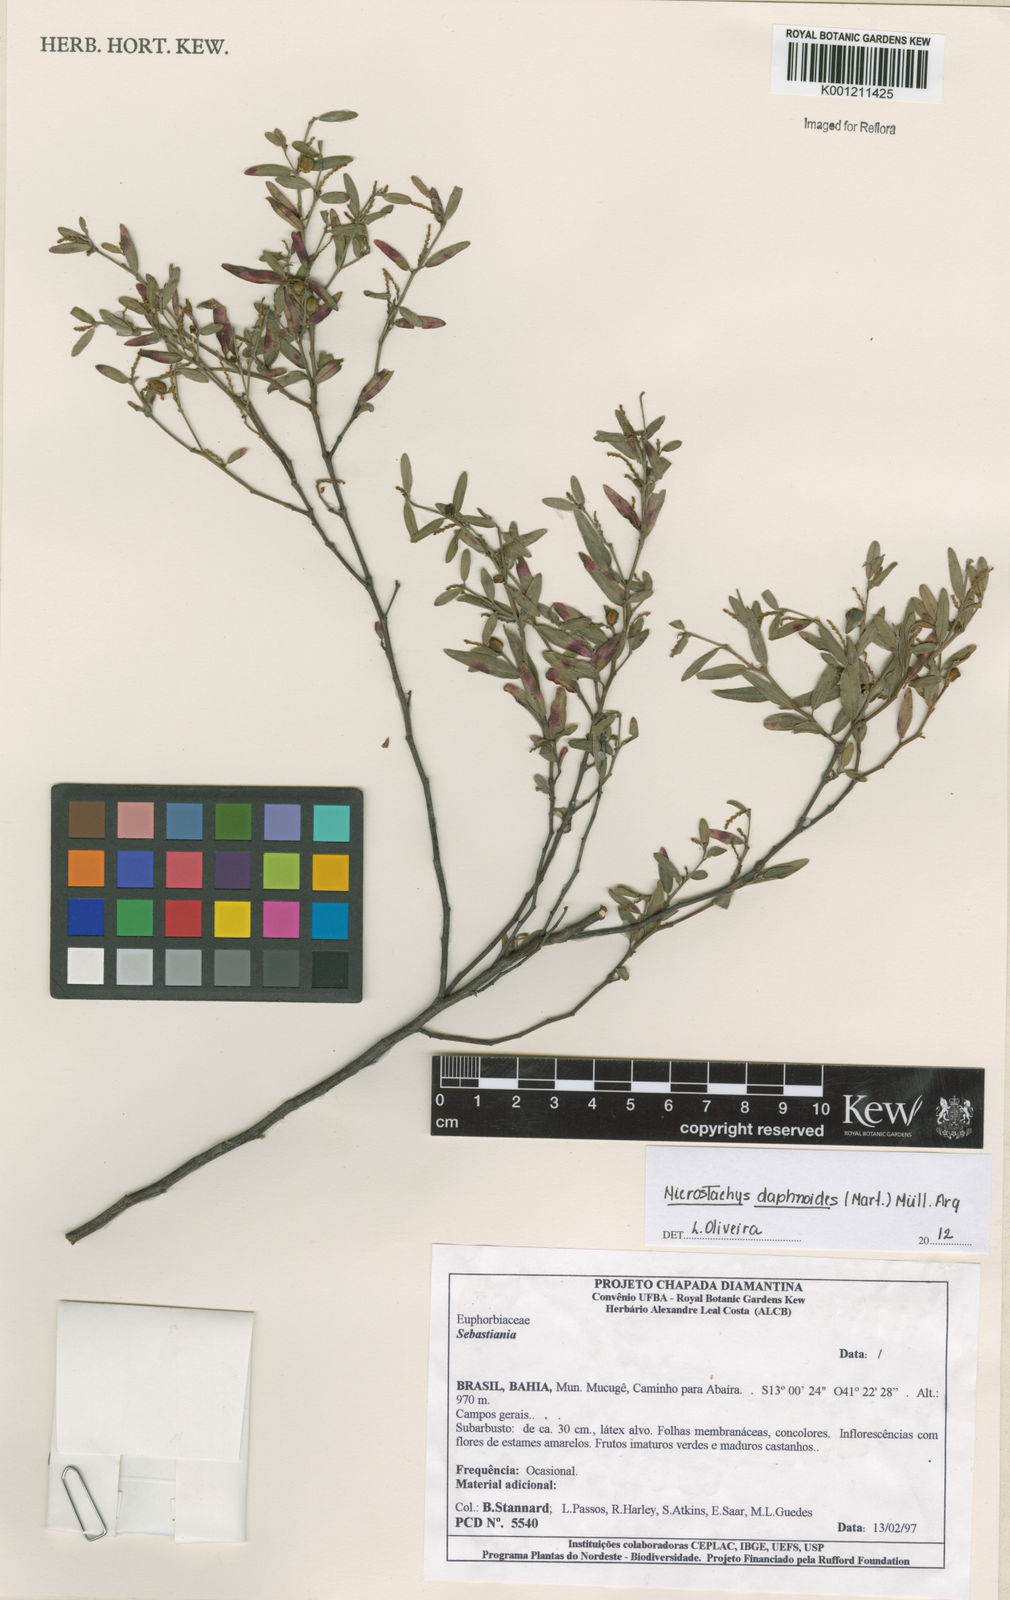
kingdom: Plantae
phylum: Tracheophyta
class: Magnoliopsida
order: Malpighiales
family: Euphorbiaceae
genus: Microstachys
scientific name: Microstachys
